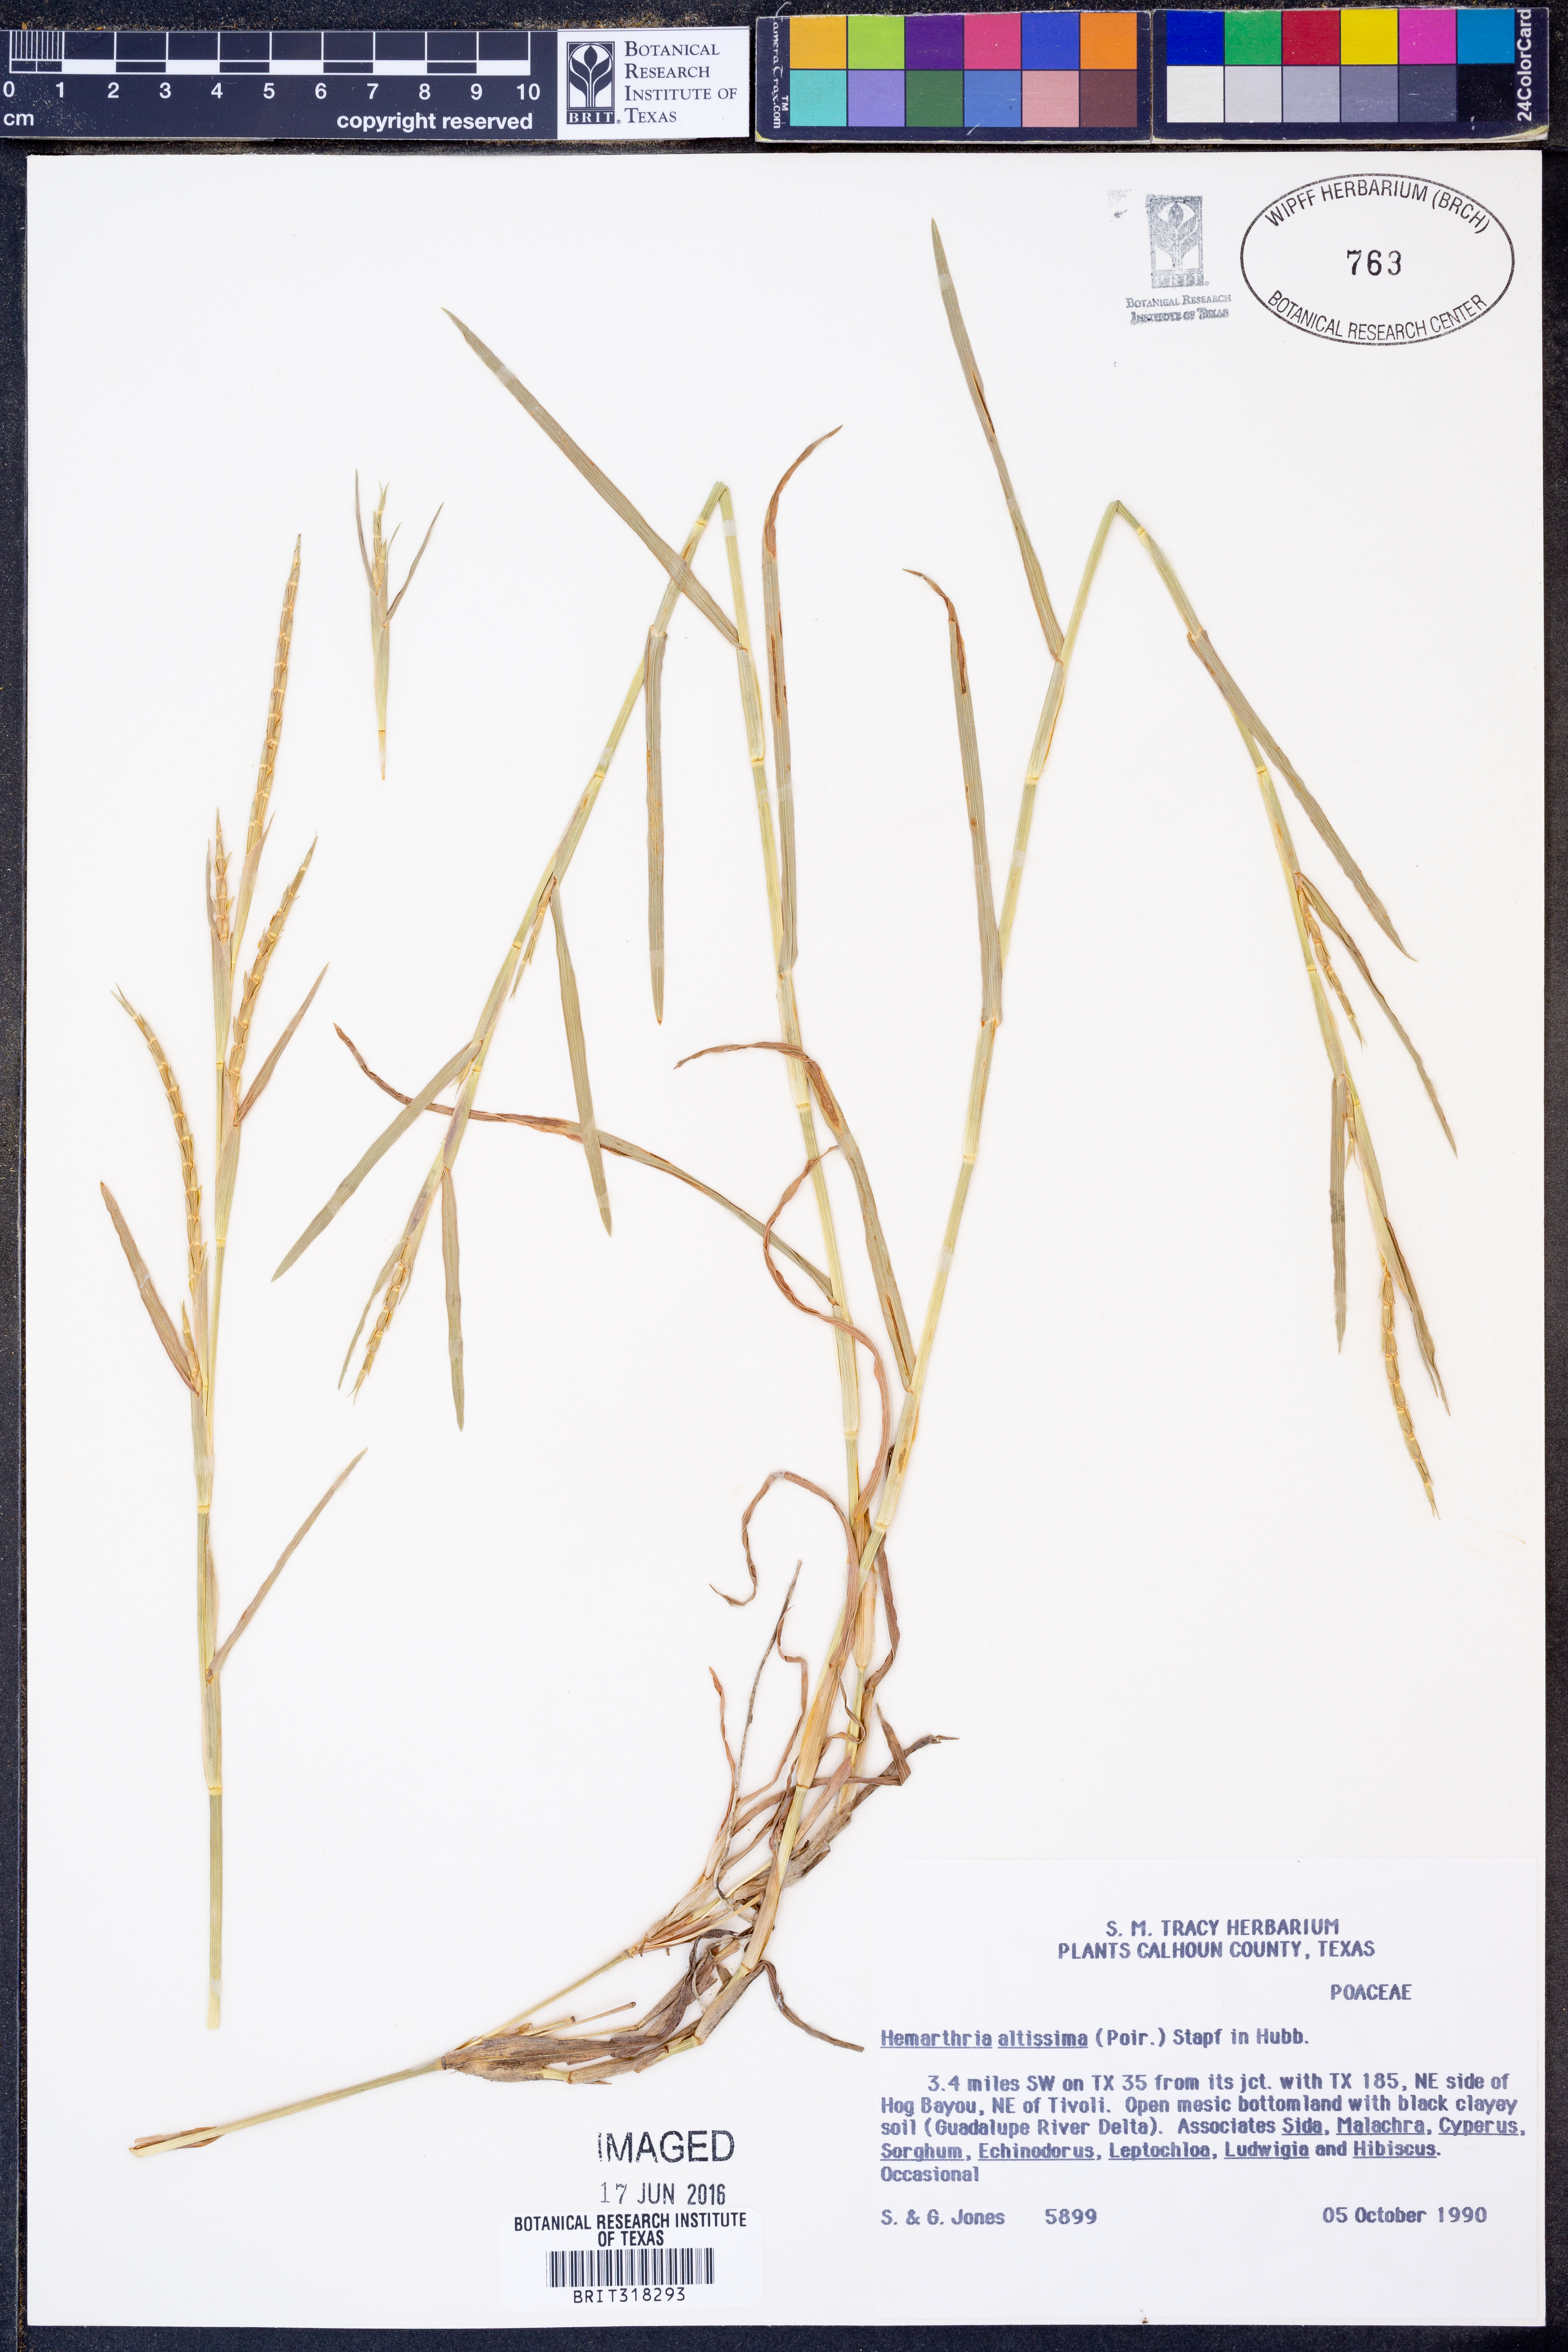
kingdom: Plantae
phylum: Tracheophyta
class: Liliopsida
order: Poales
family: Poaceae
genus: Hemarthria
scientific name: Hemarthria altissima
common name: African jointgrass
